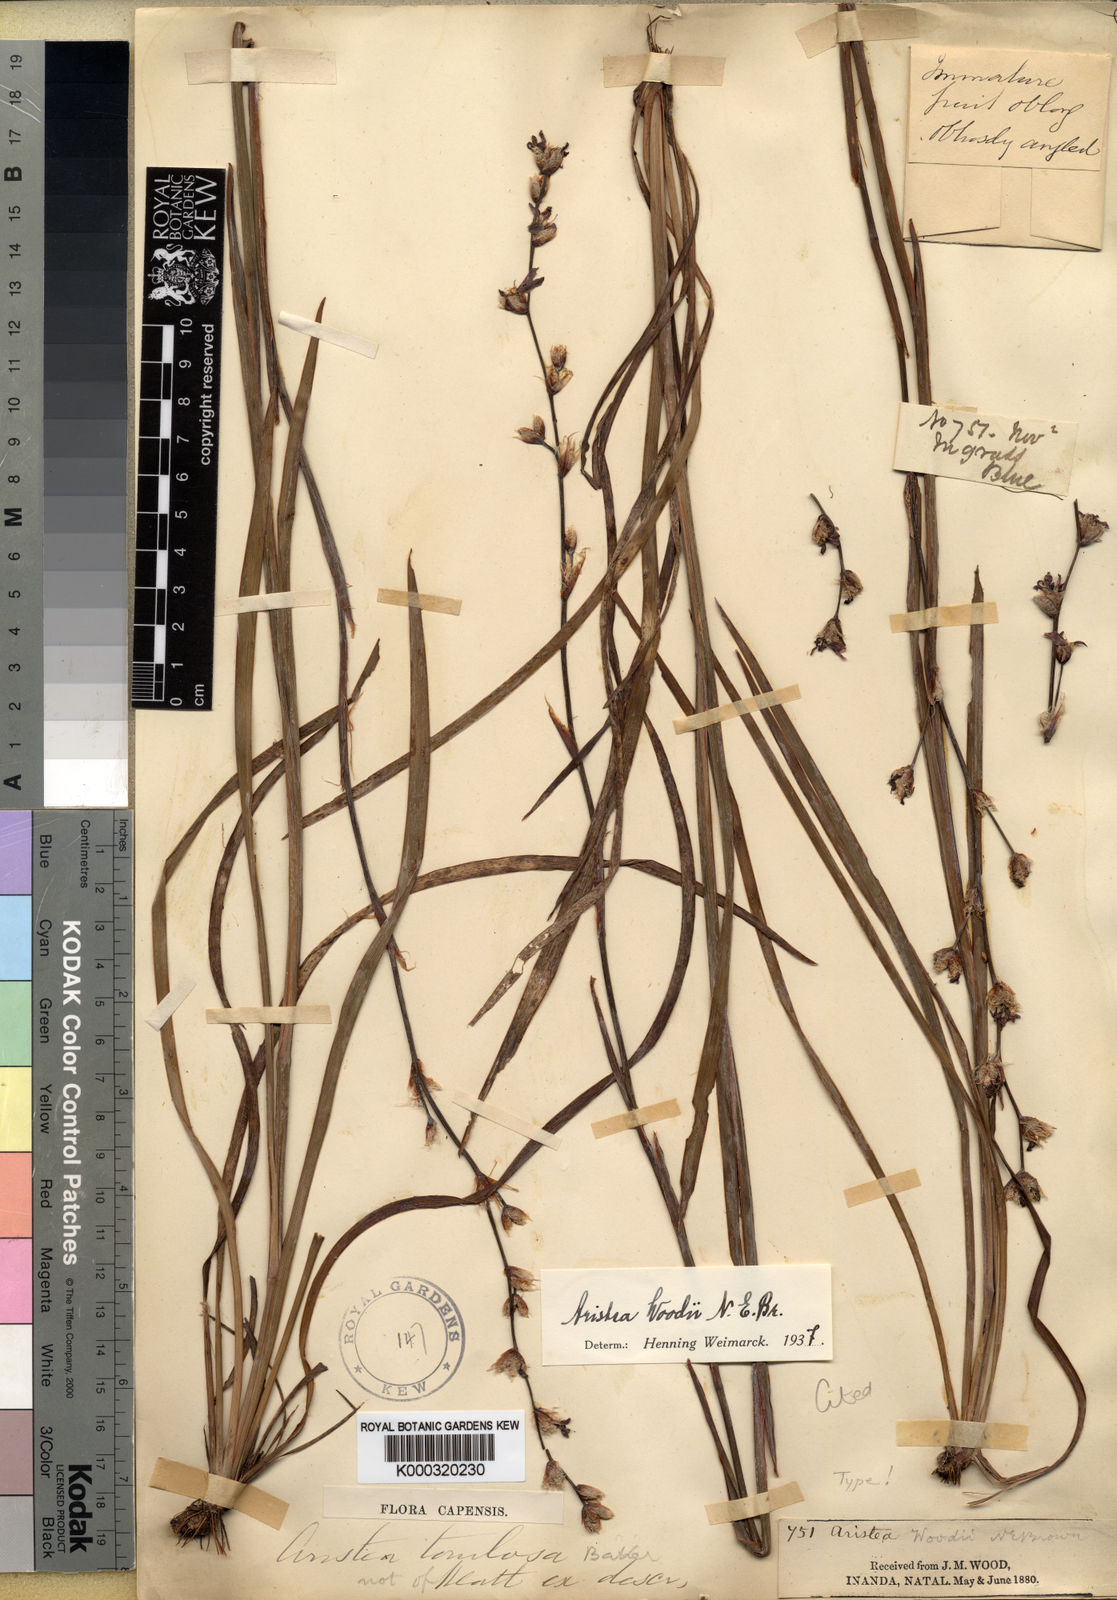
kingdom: Plantae
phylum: Tracheophyta
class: Liliopsida
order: Asparagales
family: Iridaceae
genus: Aristea
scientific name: Aristea torulosa
